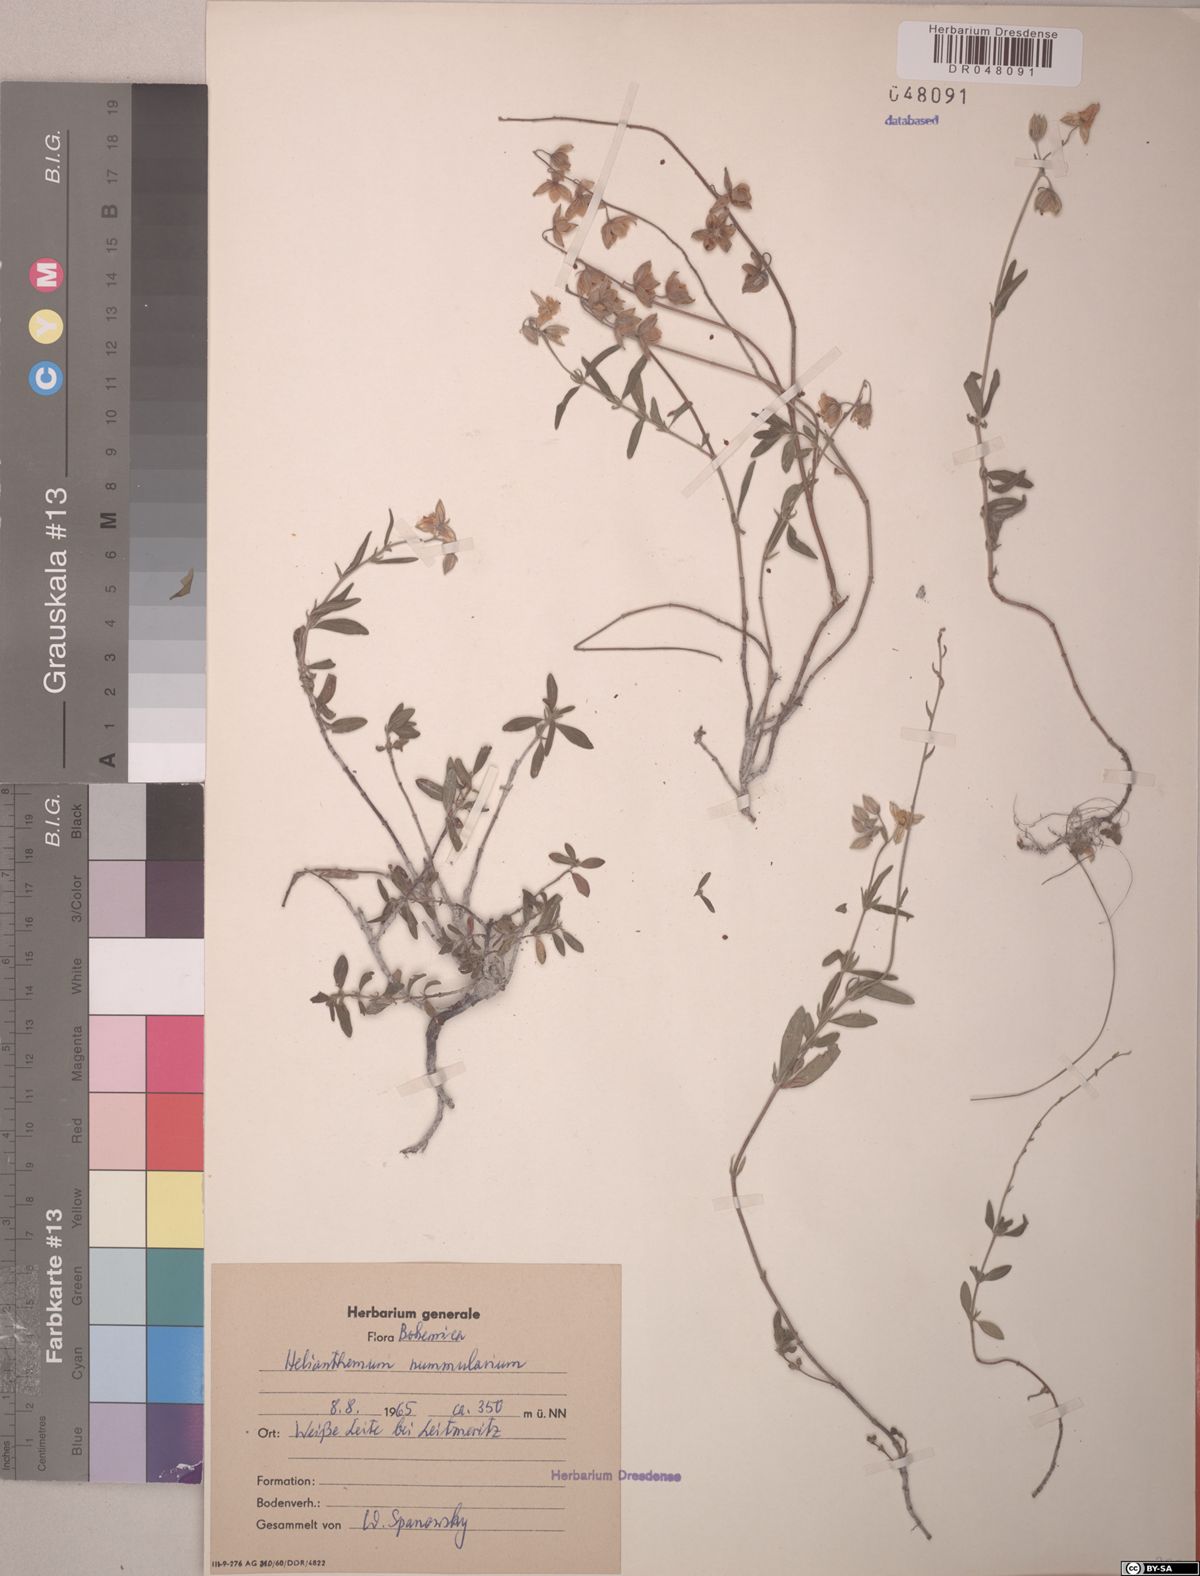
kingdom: Plantae
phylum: Tracheophyta
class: Magnoliopsida
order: Malvales
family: Cistaceae
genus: Helianthemum
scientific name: Helianthemum nummularium
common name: Common rock-rose
